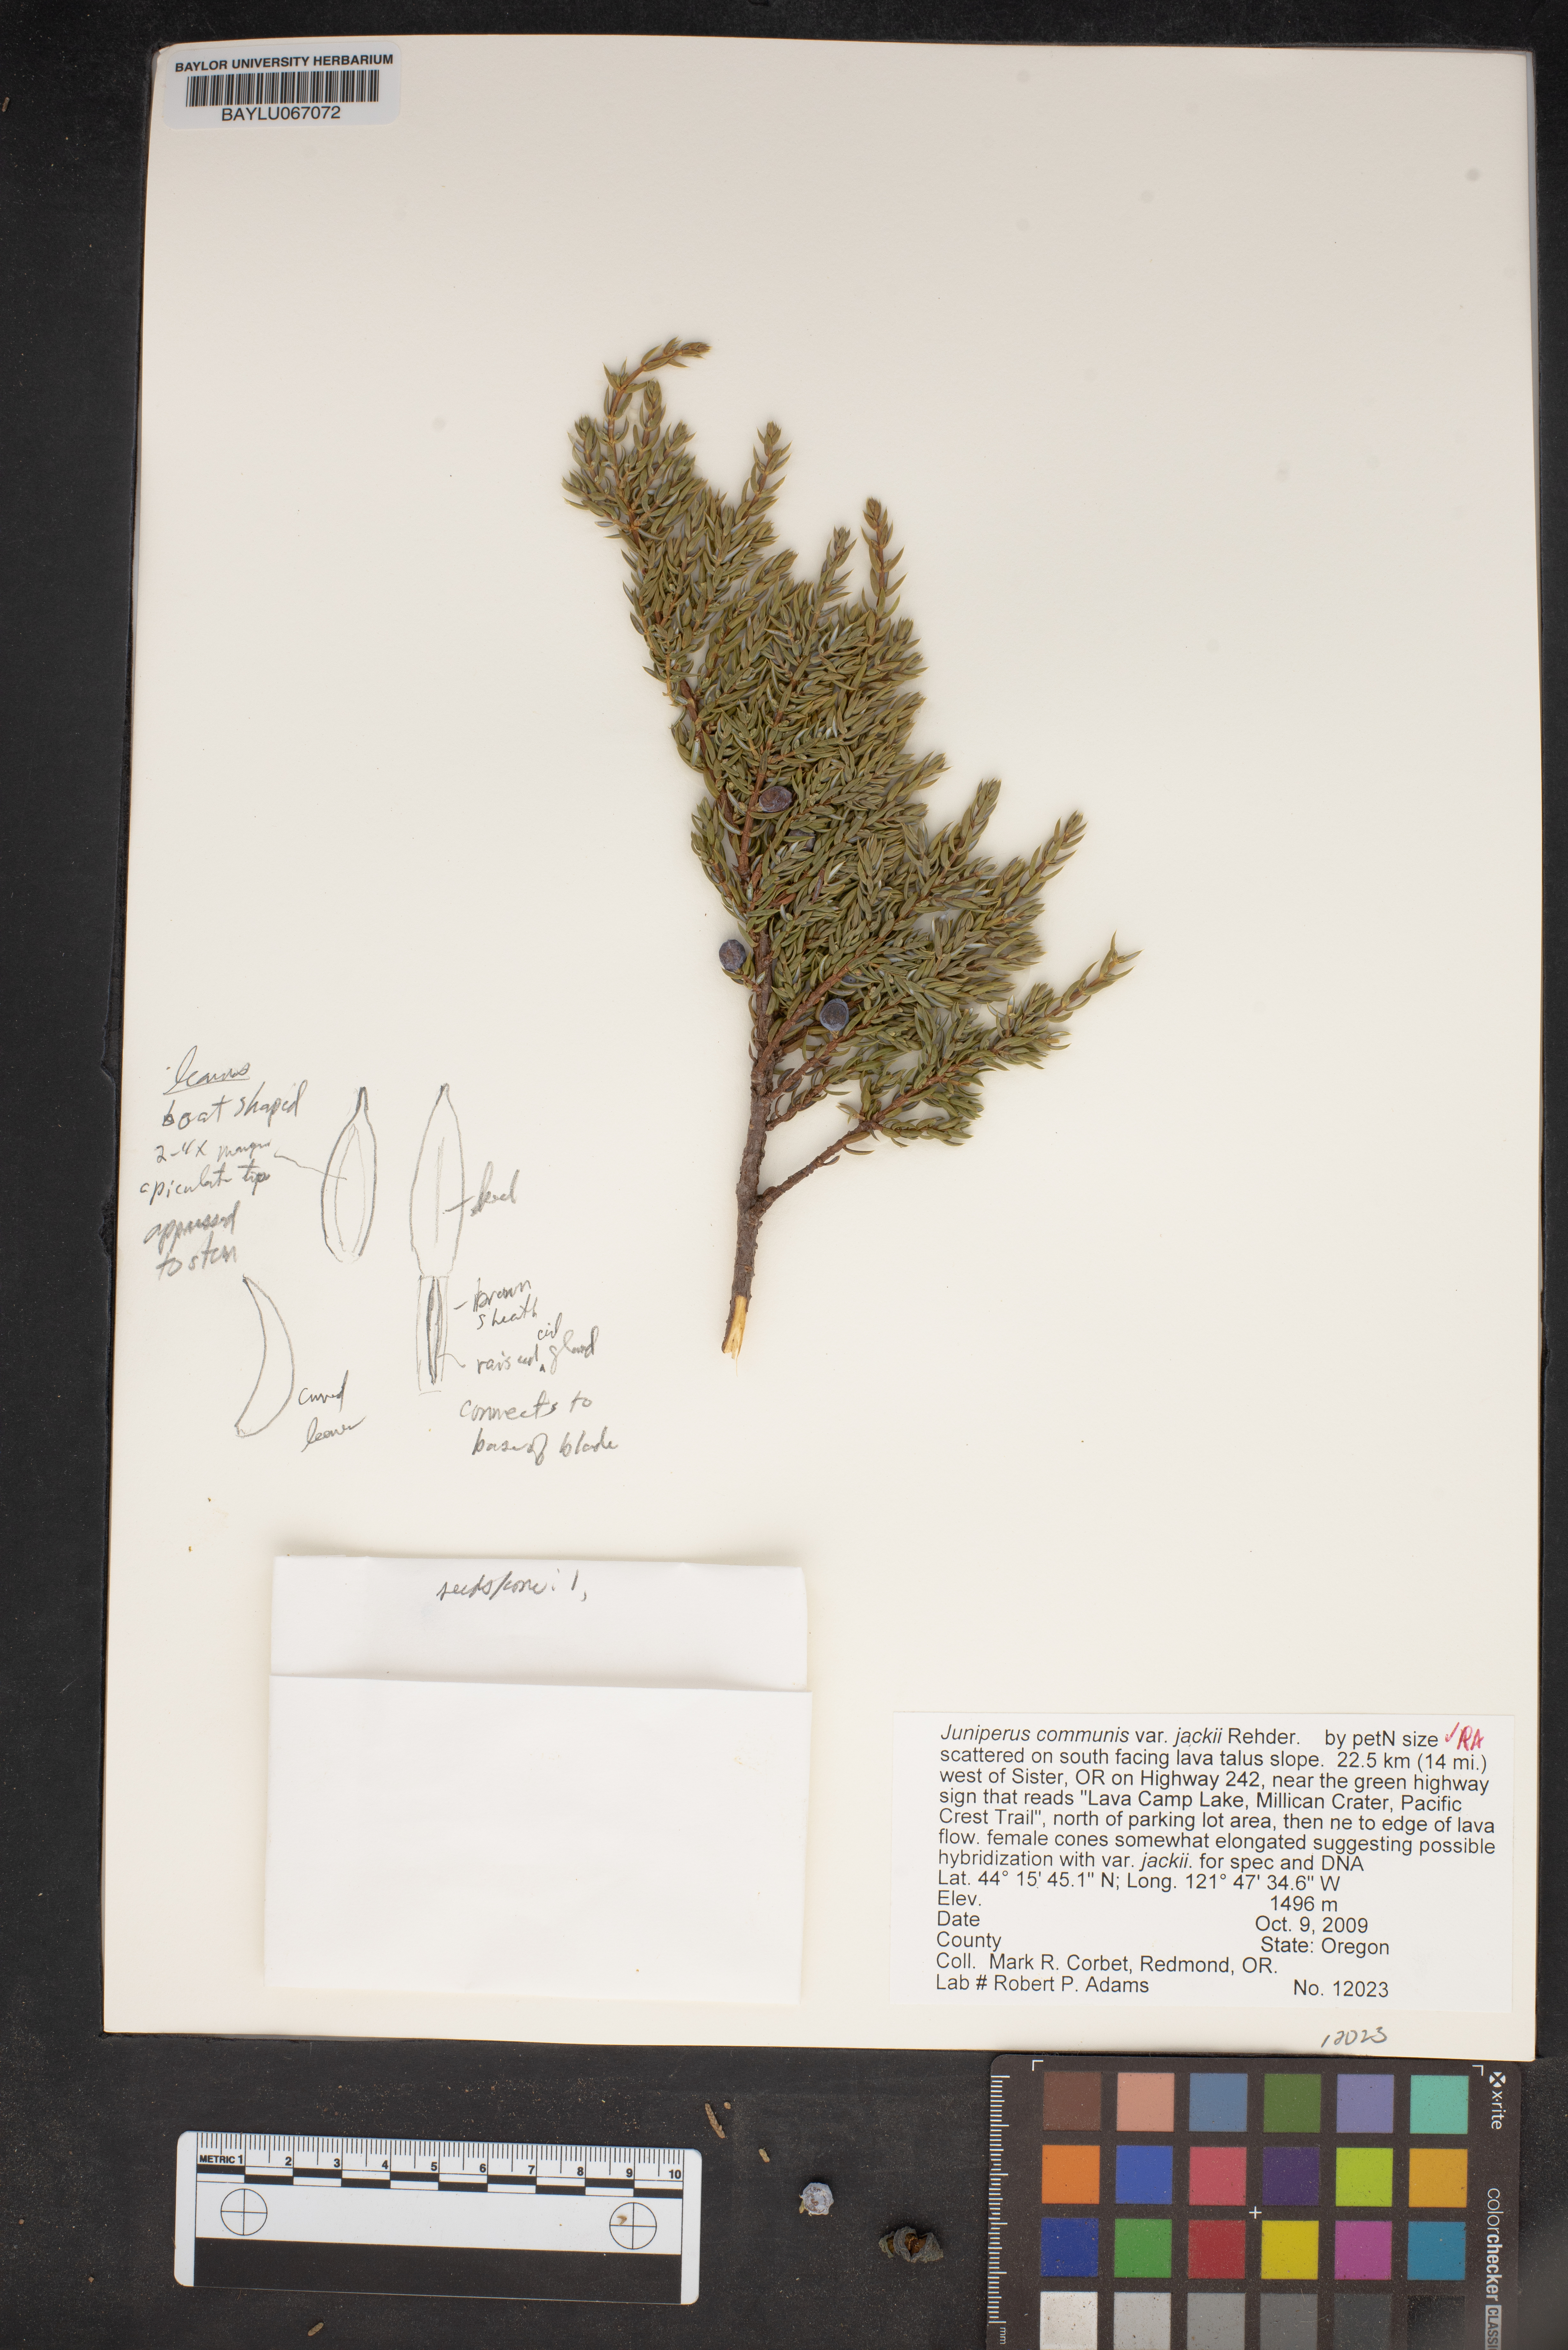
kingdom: Plantae
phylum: Tracheophyta
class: Pinopsida
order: Pinales
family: Cupressaceae
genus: Juniperus
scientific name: Juniperus communis
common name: Common juniper
